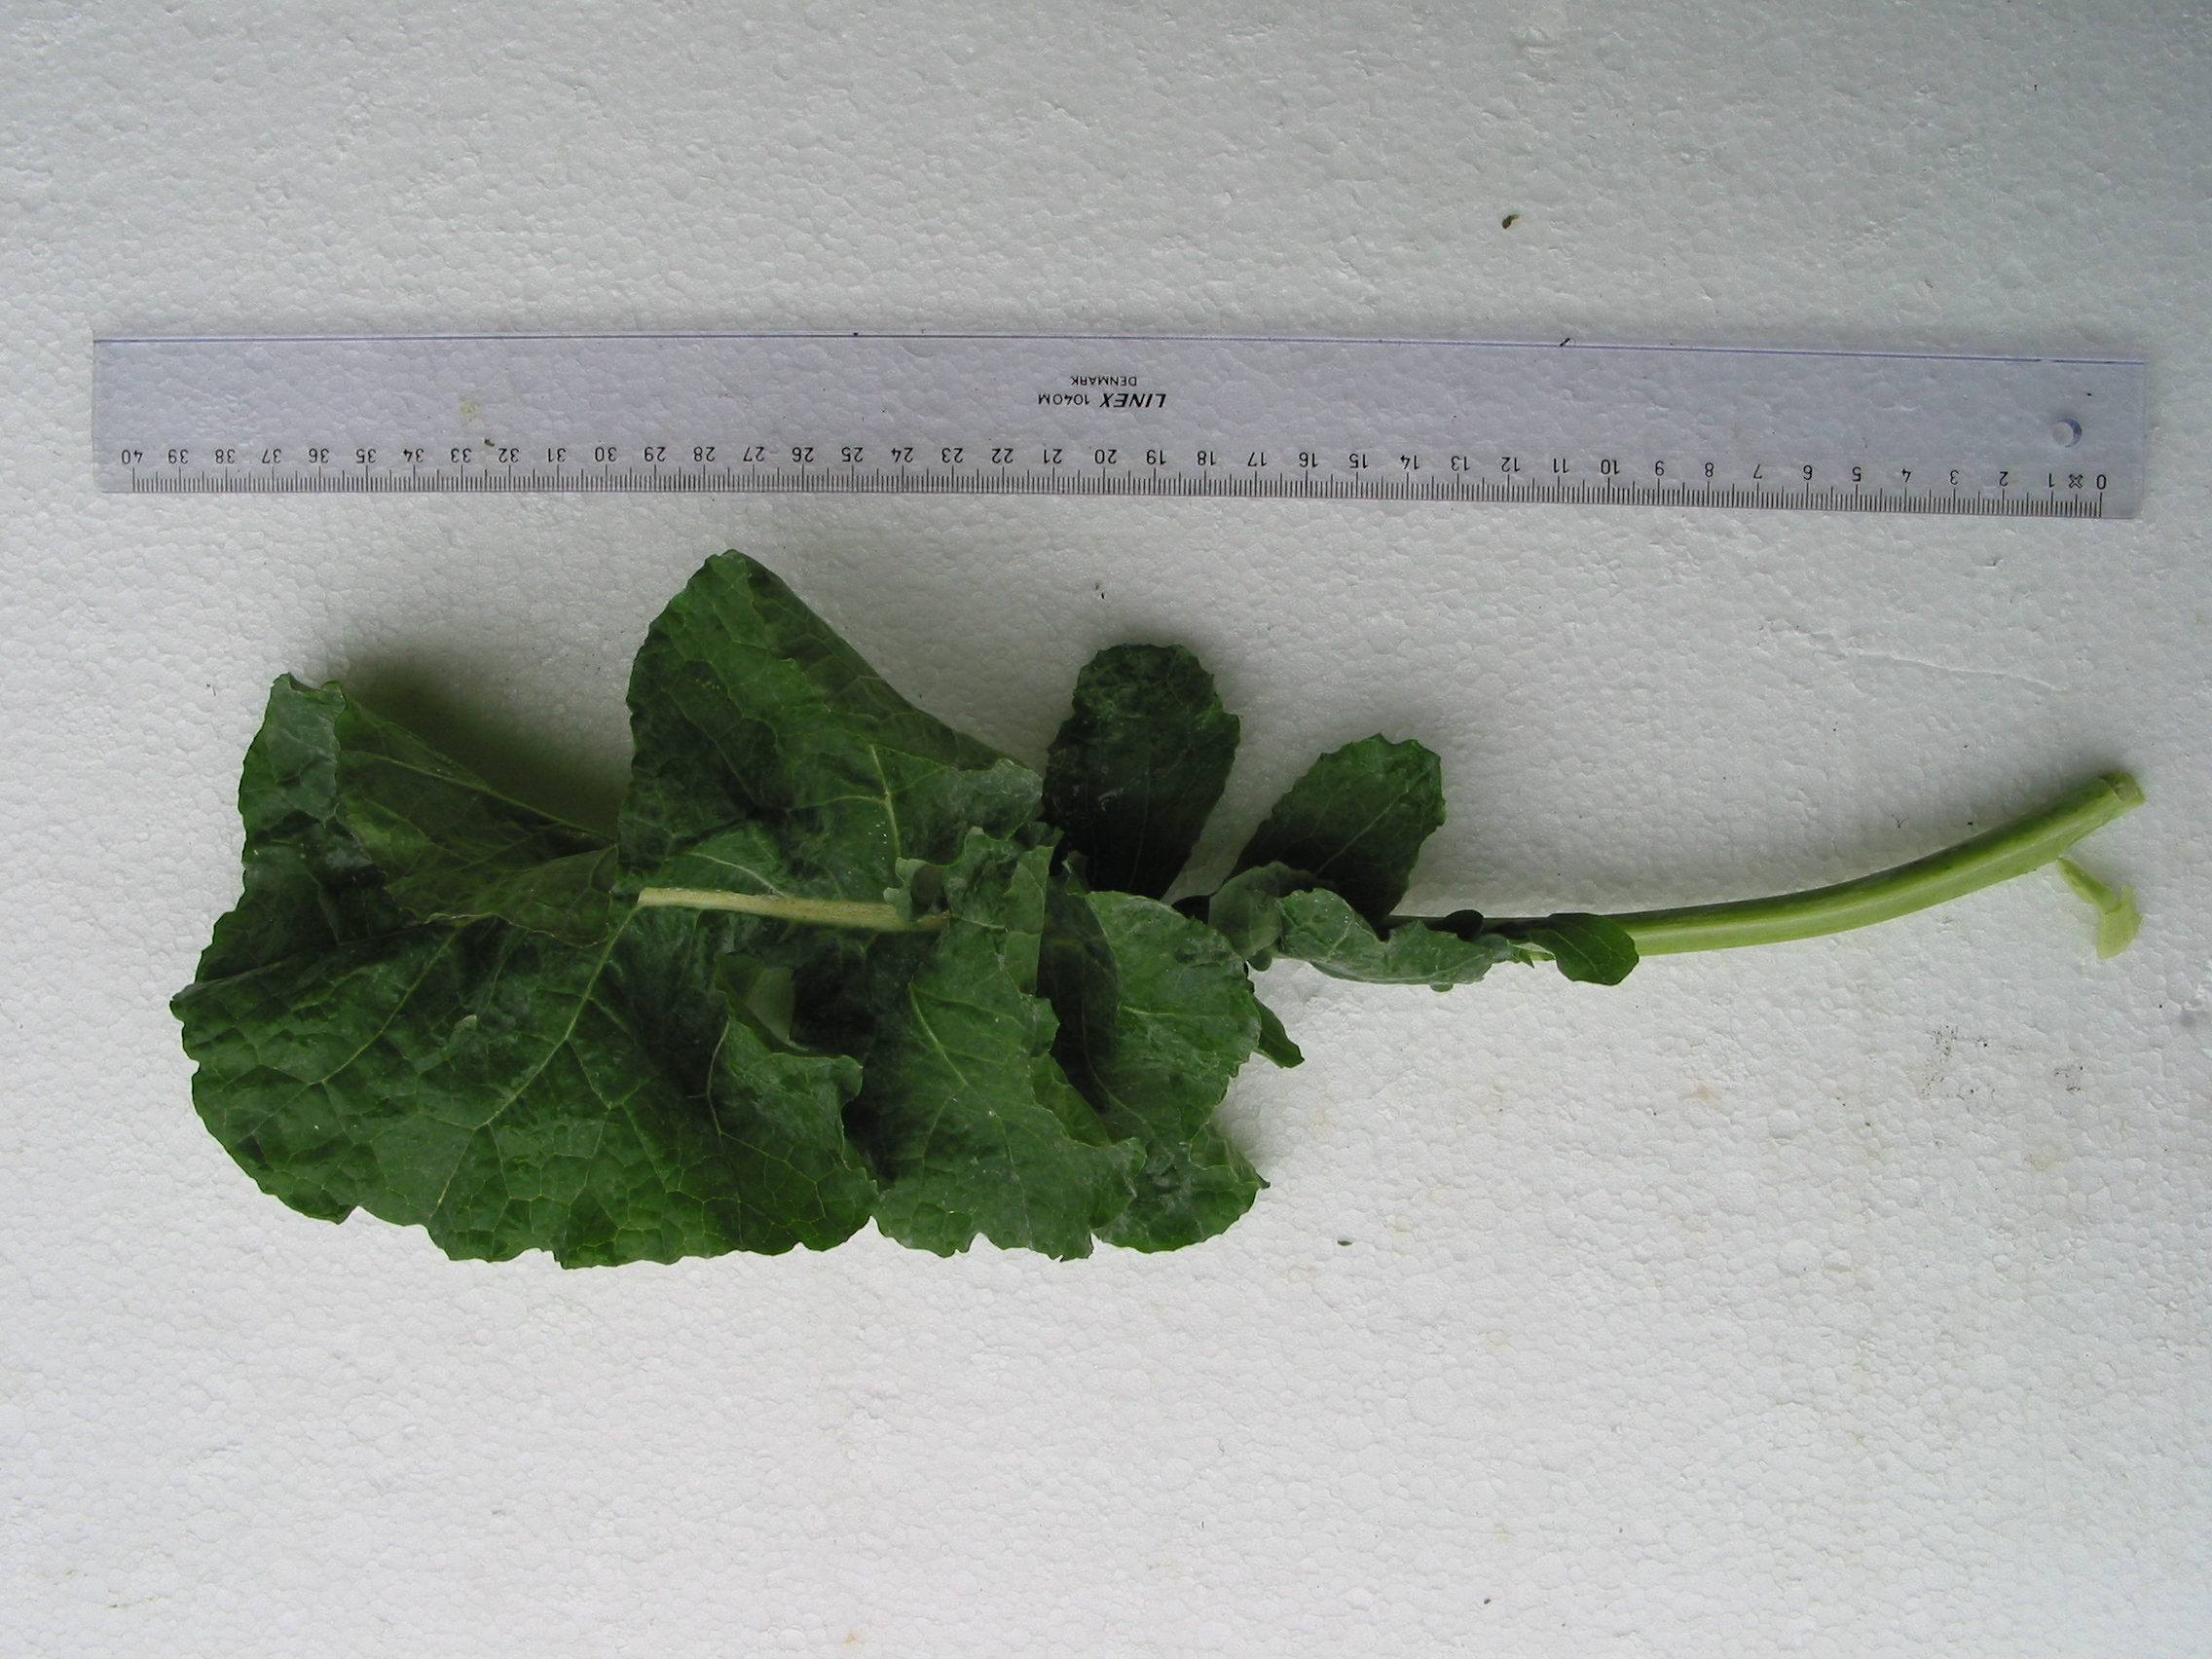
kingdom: Plantae
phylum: Tracheophyta
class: Magnoliopsida
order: Brassicales
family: Brassicaceae
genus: Brassica
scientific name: Brassica napus
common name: Rape
